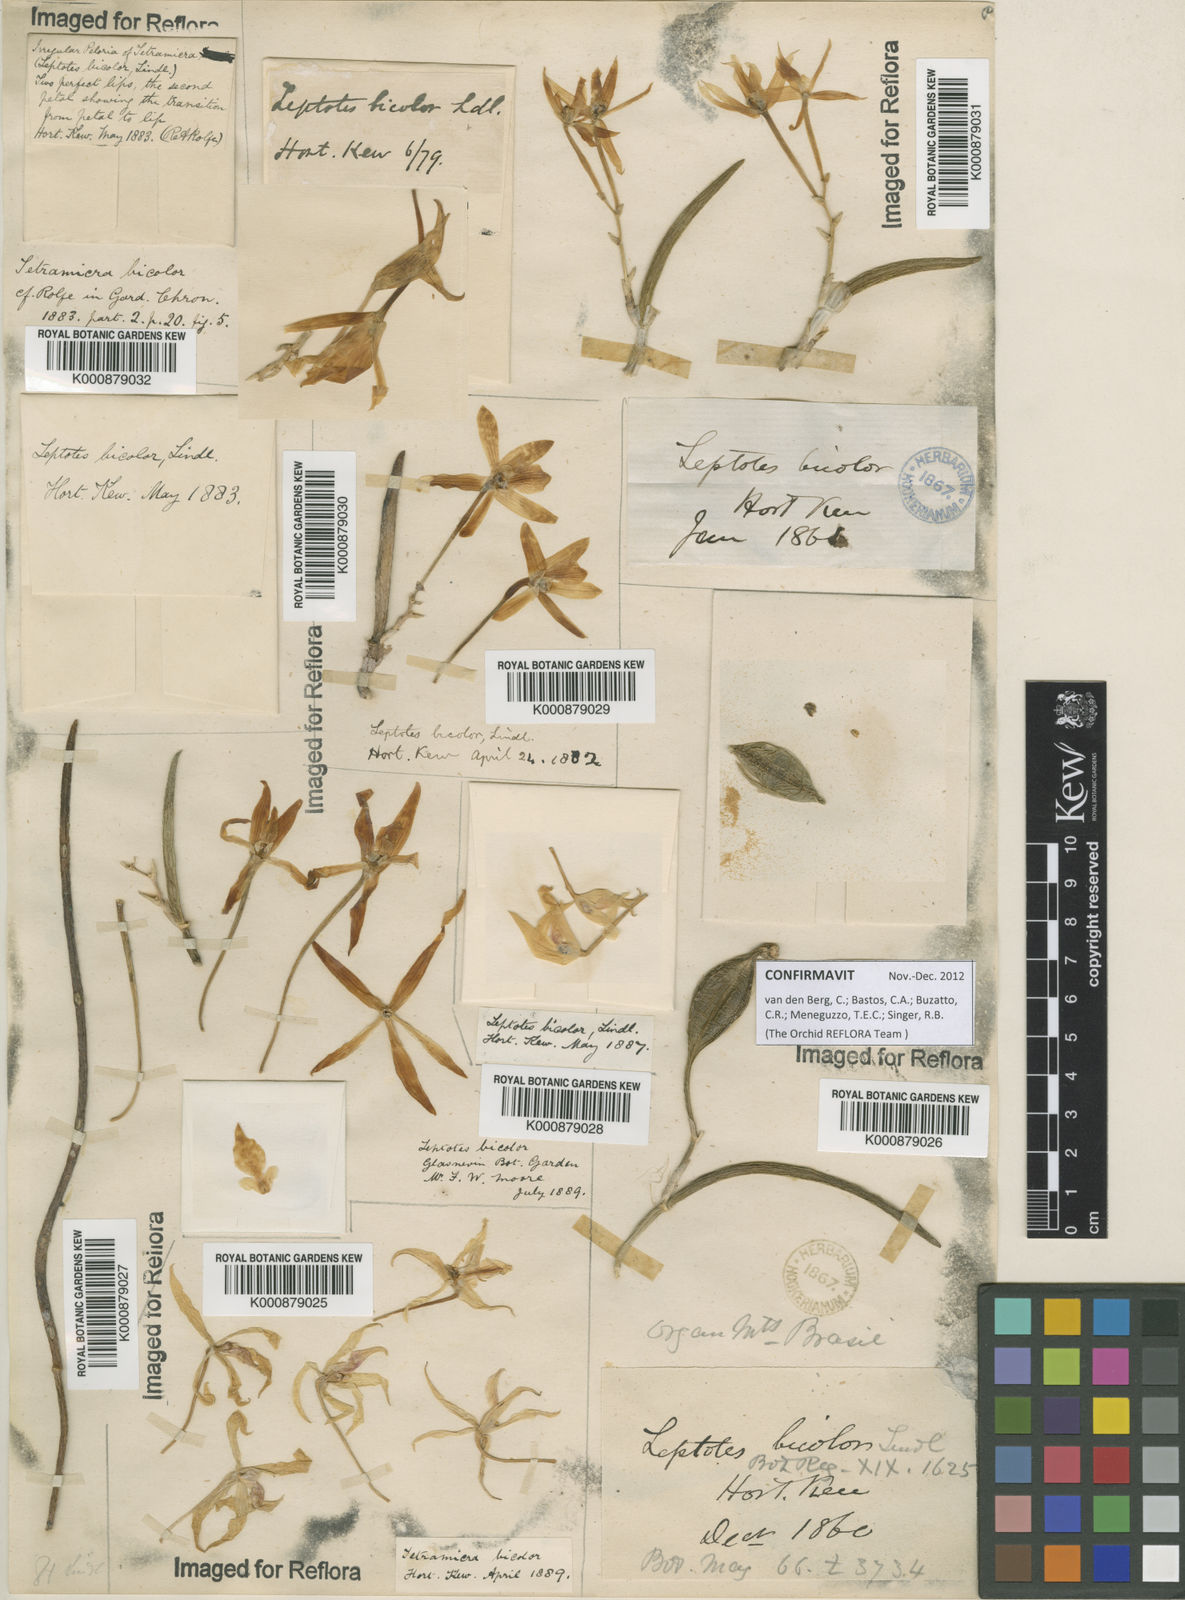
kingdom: Plantae
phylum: Tracheophyta
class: Liliopsida
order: Asparagales
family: Orchidaceae
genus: Leptotes
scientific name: Leptotes
